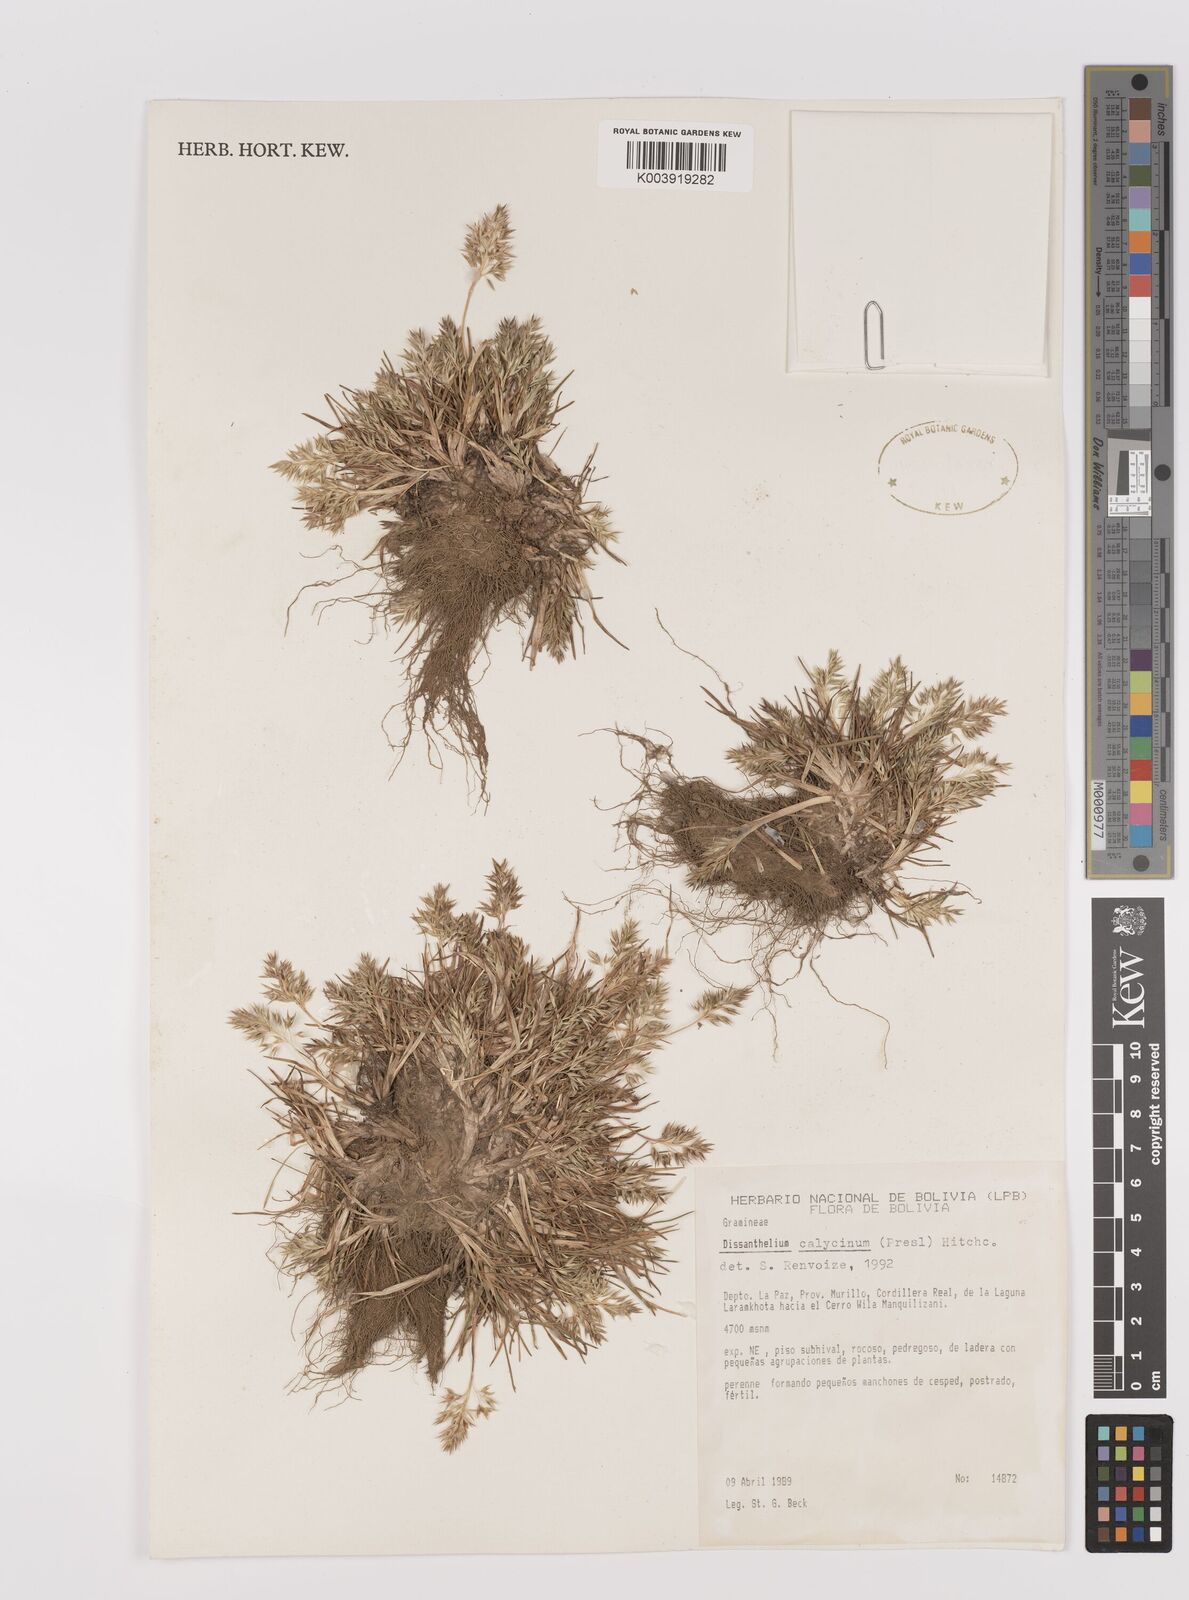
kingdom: Plantae
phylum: Tracheophyta
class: Liliopsida
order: Poales
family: Poaceae
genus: Poa
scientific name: Poa calycina
